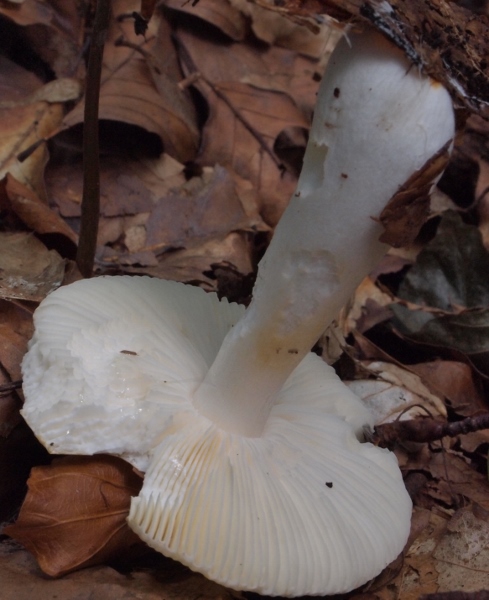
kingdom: Fungi
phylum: Basidiomycota
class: Agaricomycetes
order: Russulales
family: Russulaceae
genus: Russula
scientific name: Russula solaris
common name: sol-skørhat
